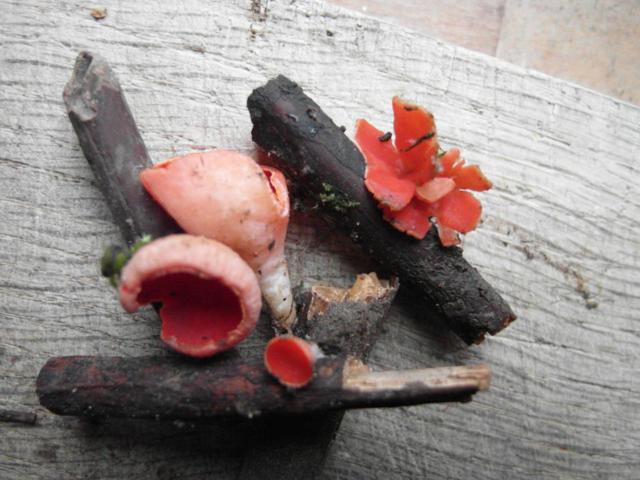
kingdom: Fungi
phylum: Ascomycota
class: Pezizomycetes
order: Pezizales
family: Sarcoscyphaceae
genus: Sarcoscypha
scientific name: Sarcoscypha coccinea
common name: skarlagen-pragtbæger
